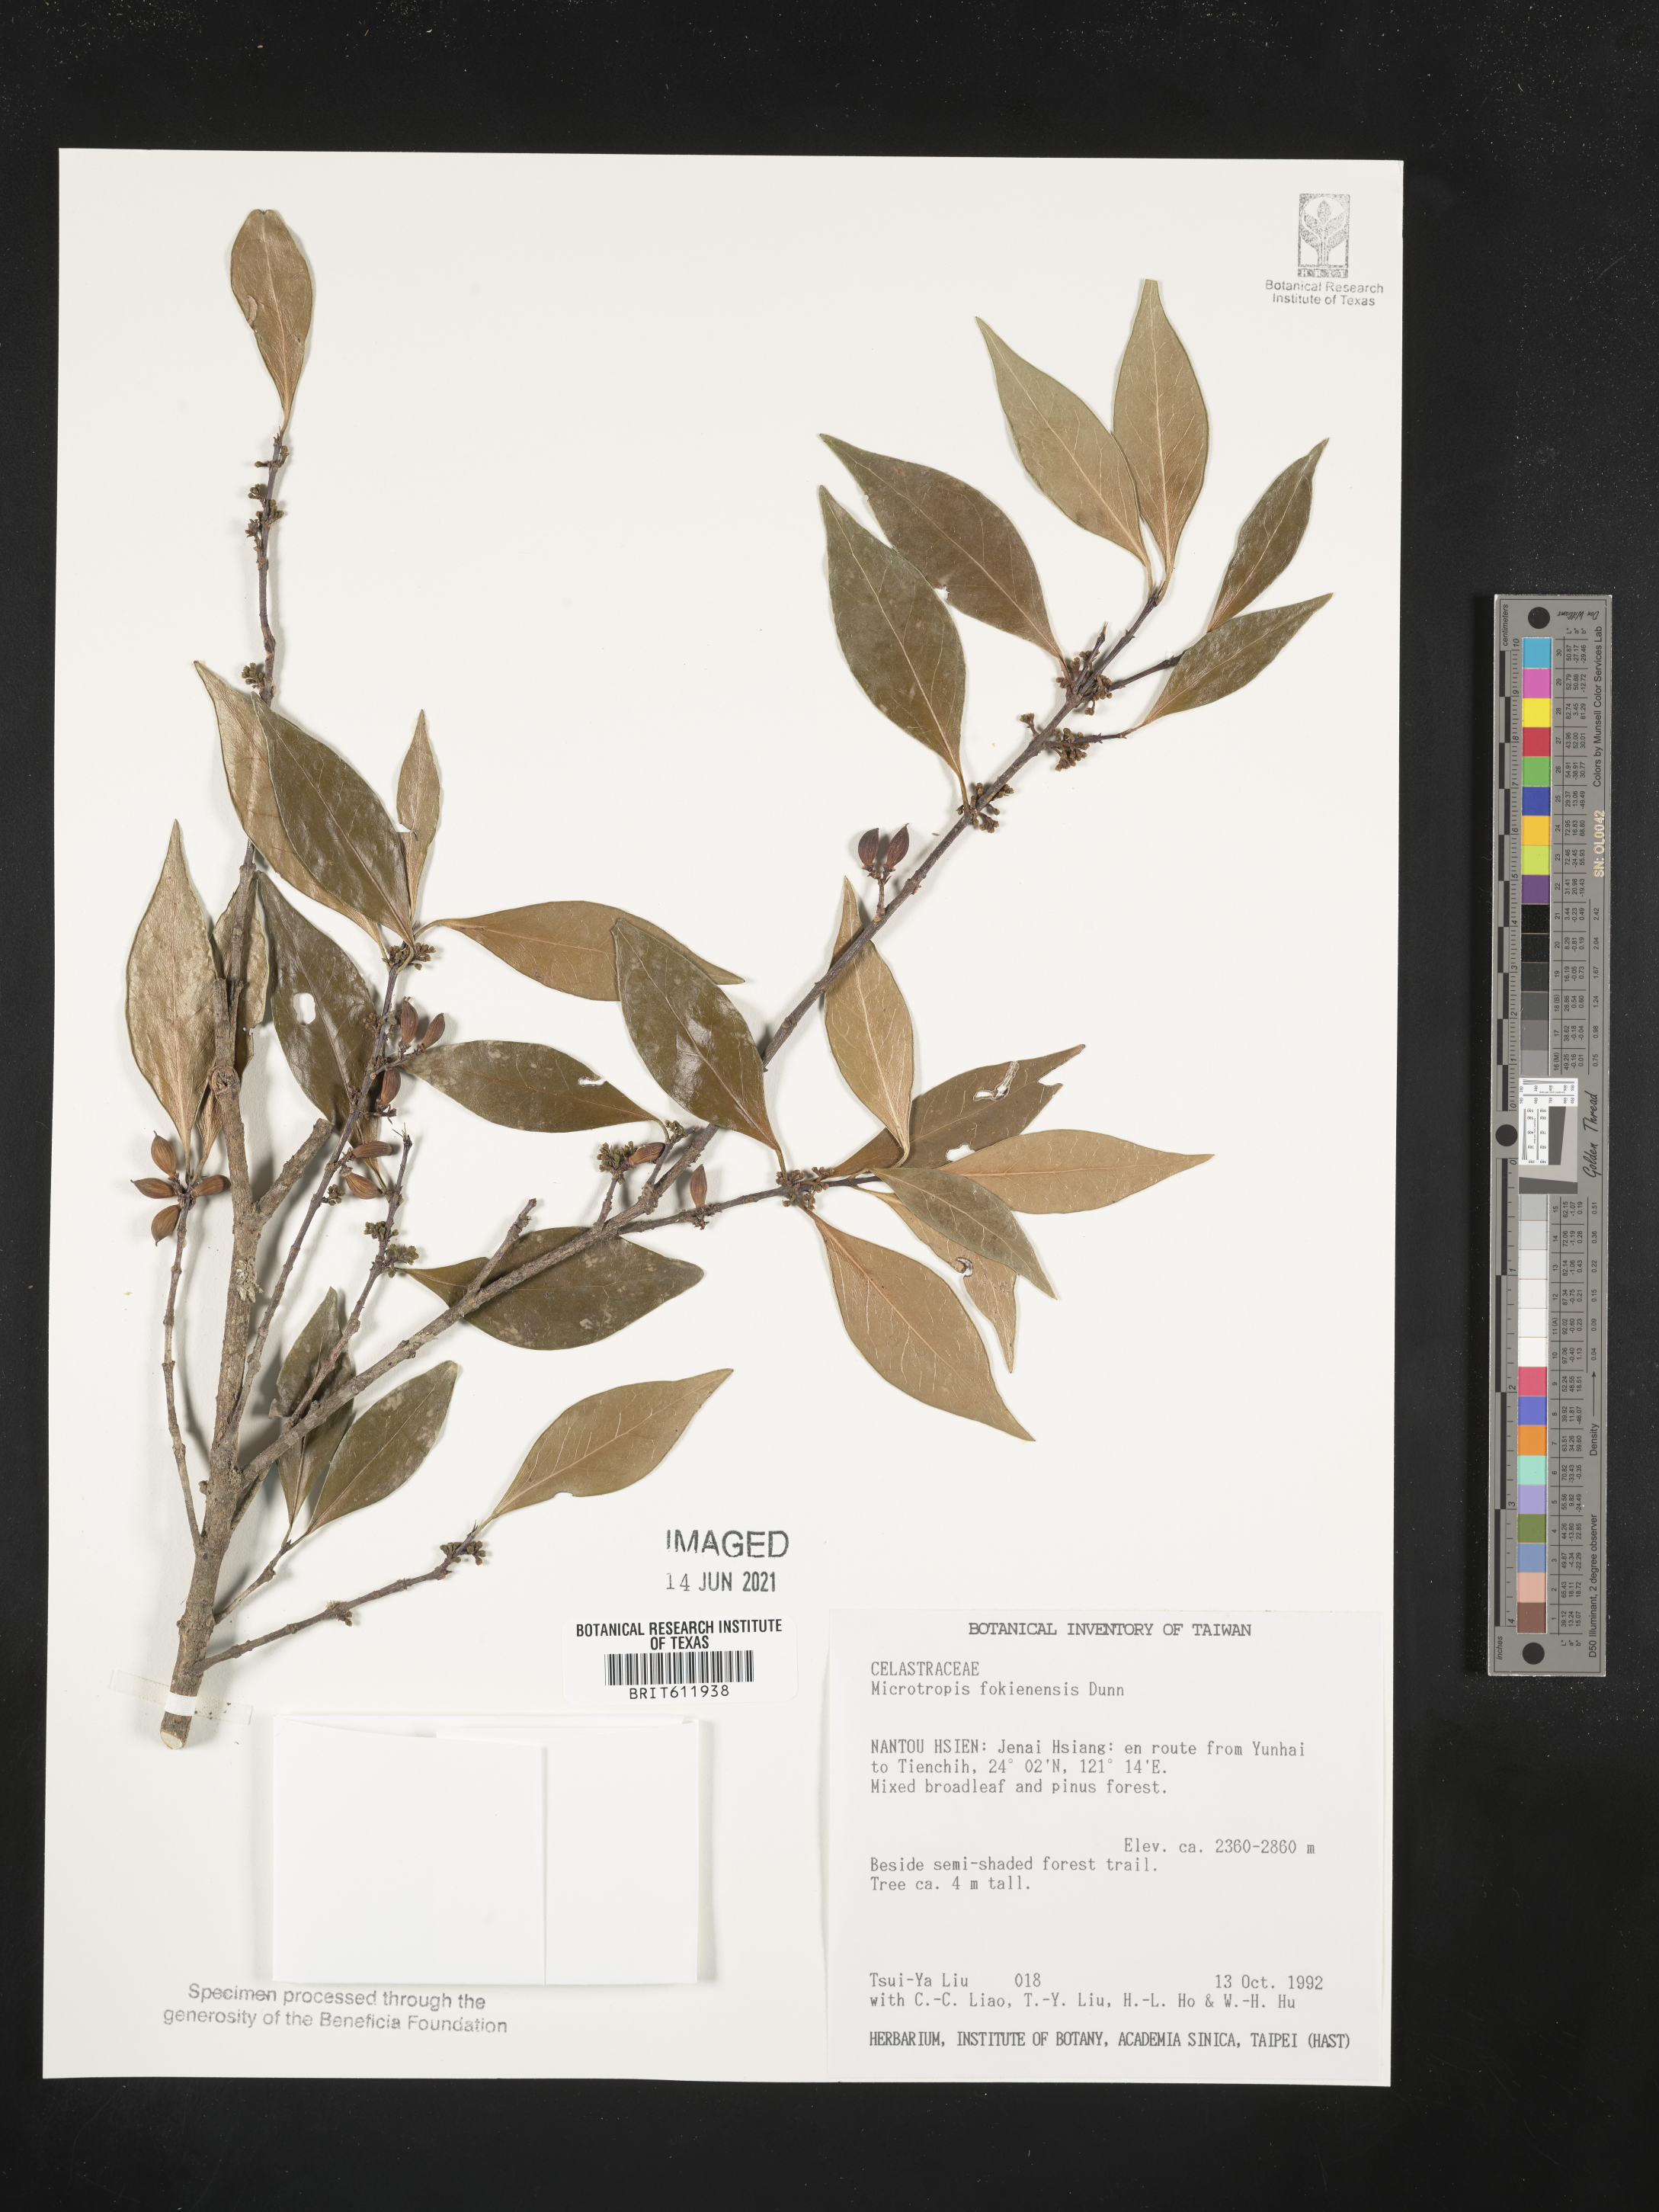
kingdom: Plantae
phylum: Tracheophyta
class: Magnoliopsida
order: Celastrales
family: Celastraceae
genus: Microtropis
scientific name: Microtropis fokienensis
